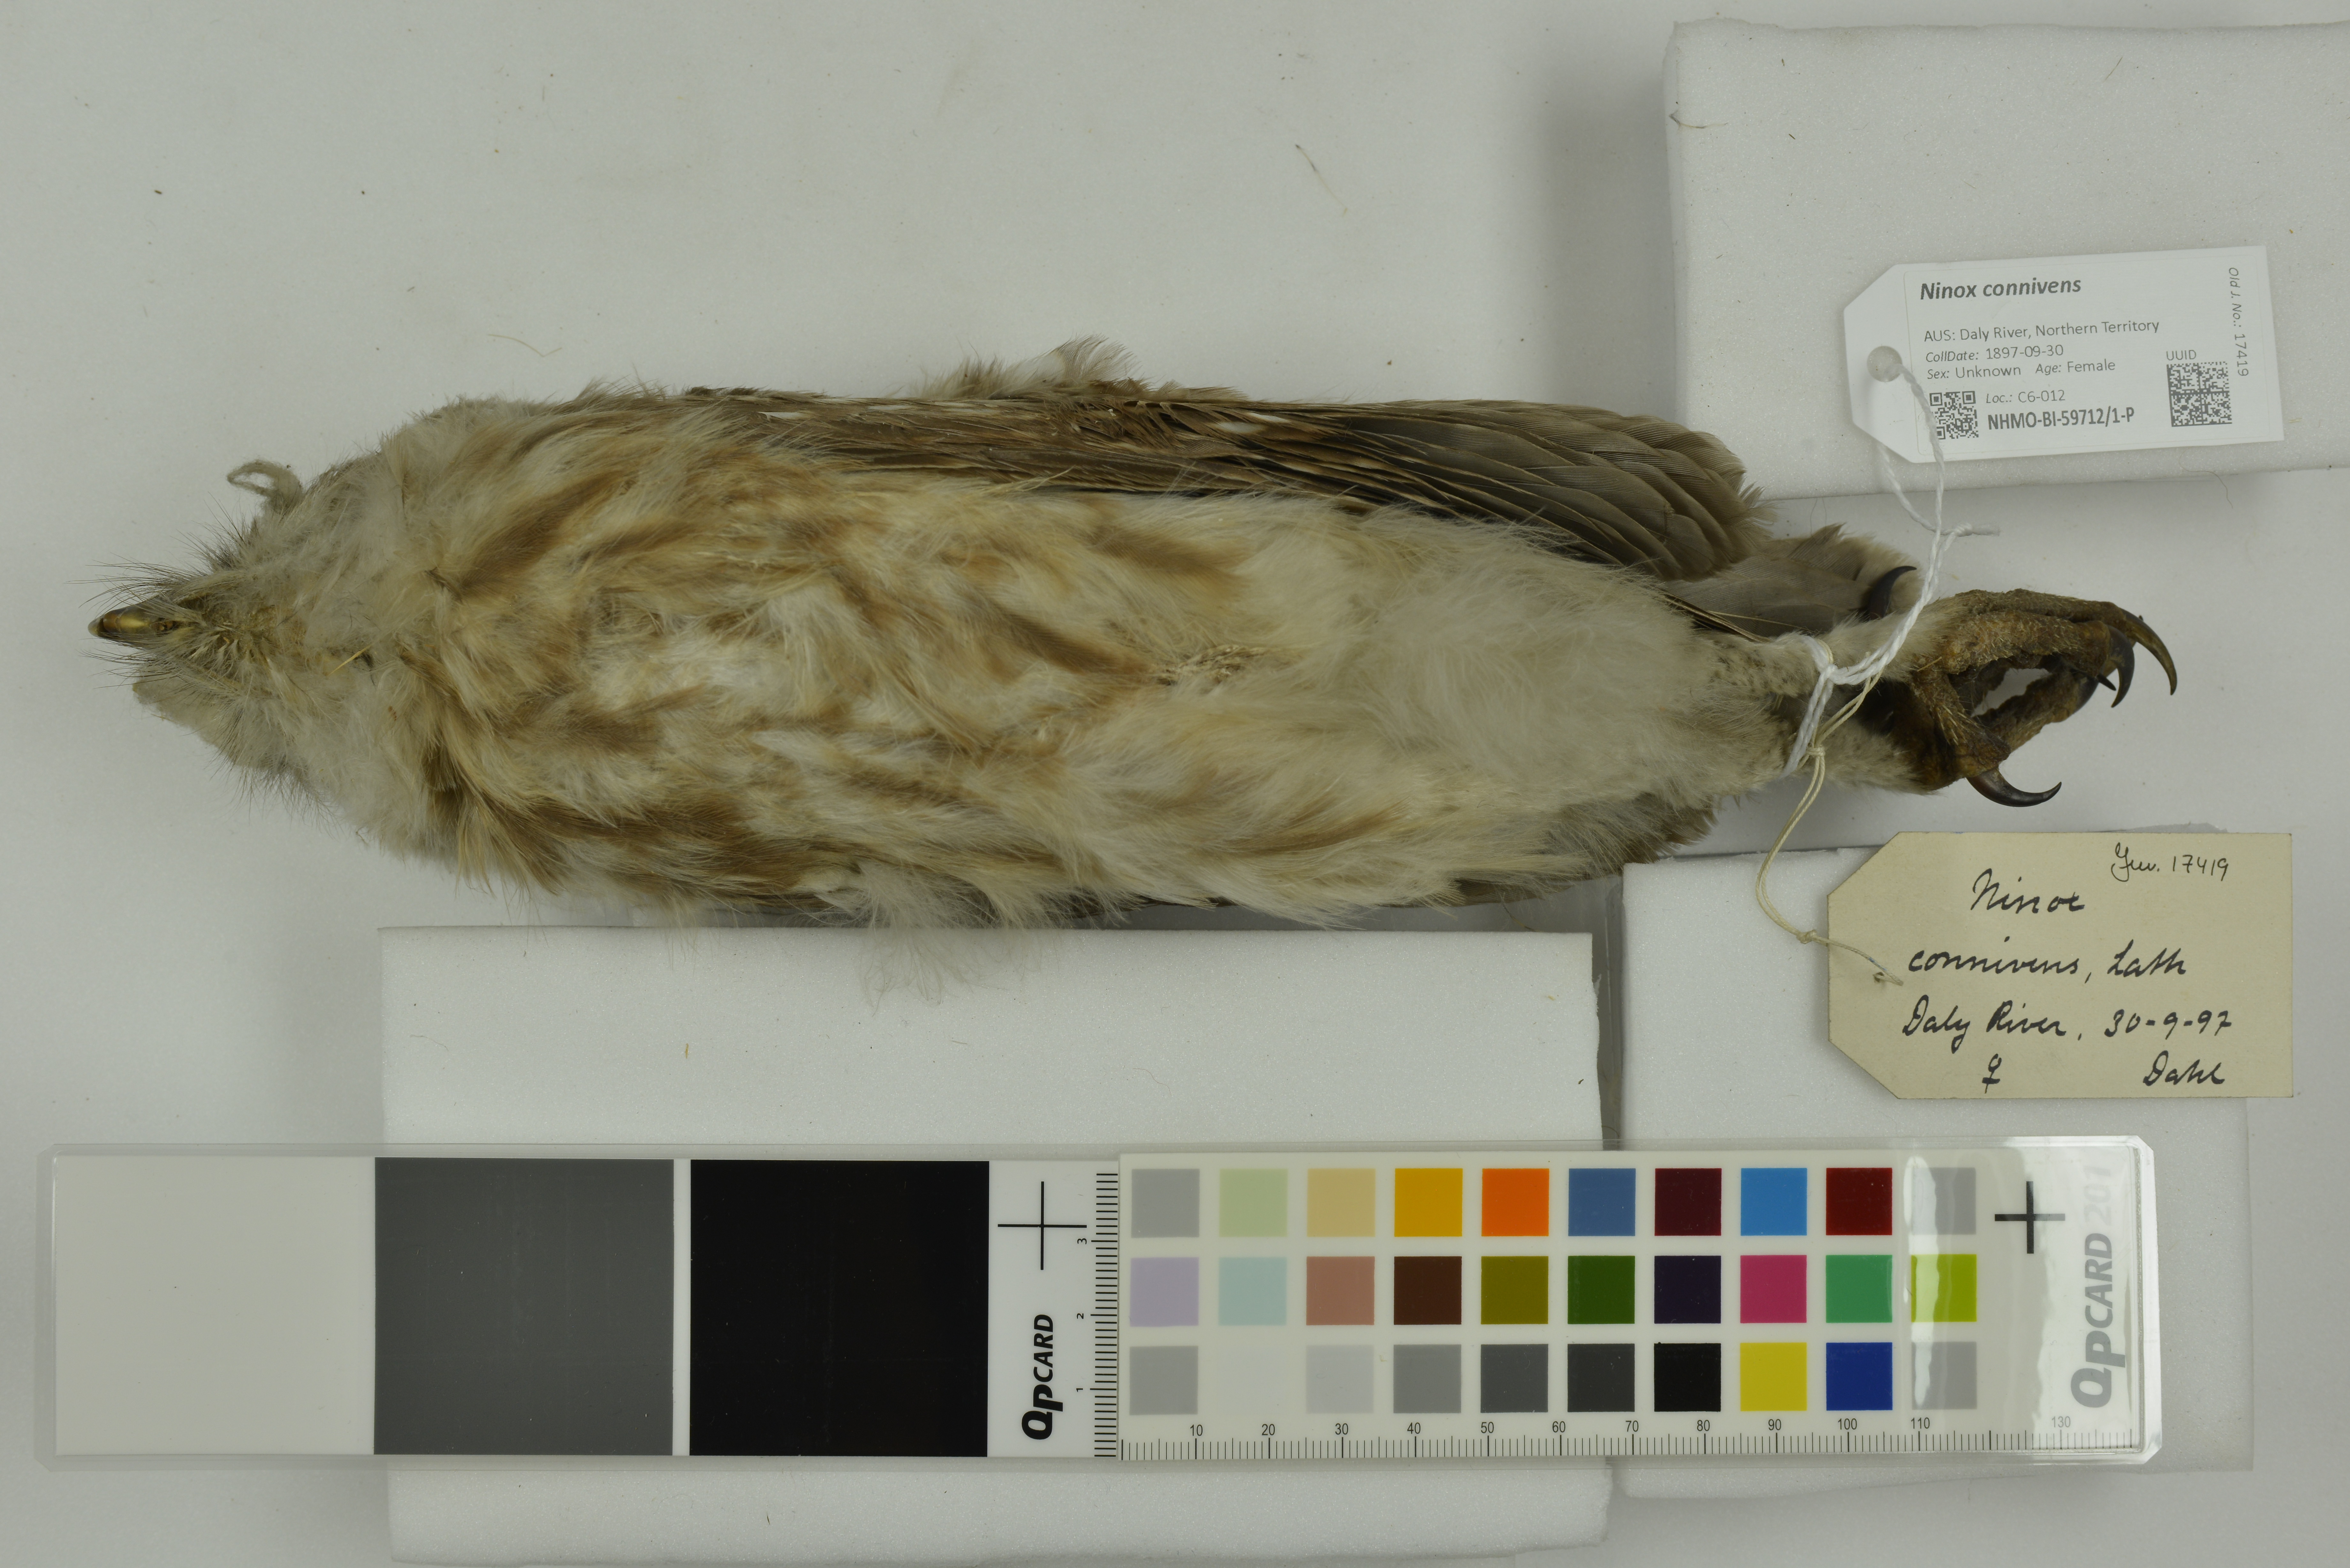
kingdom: Animalia
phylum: Chordata
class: Aves
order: Strigiformes
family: Strigidae
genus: Ninox
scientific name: Ninox connivens
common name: Barking owl
